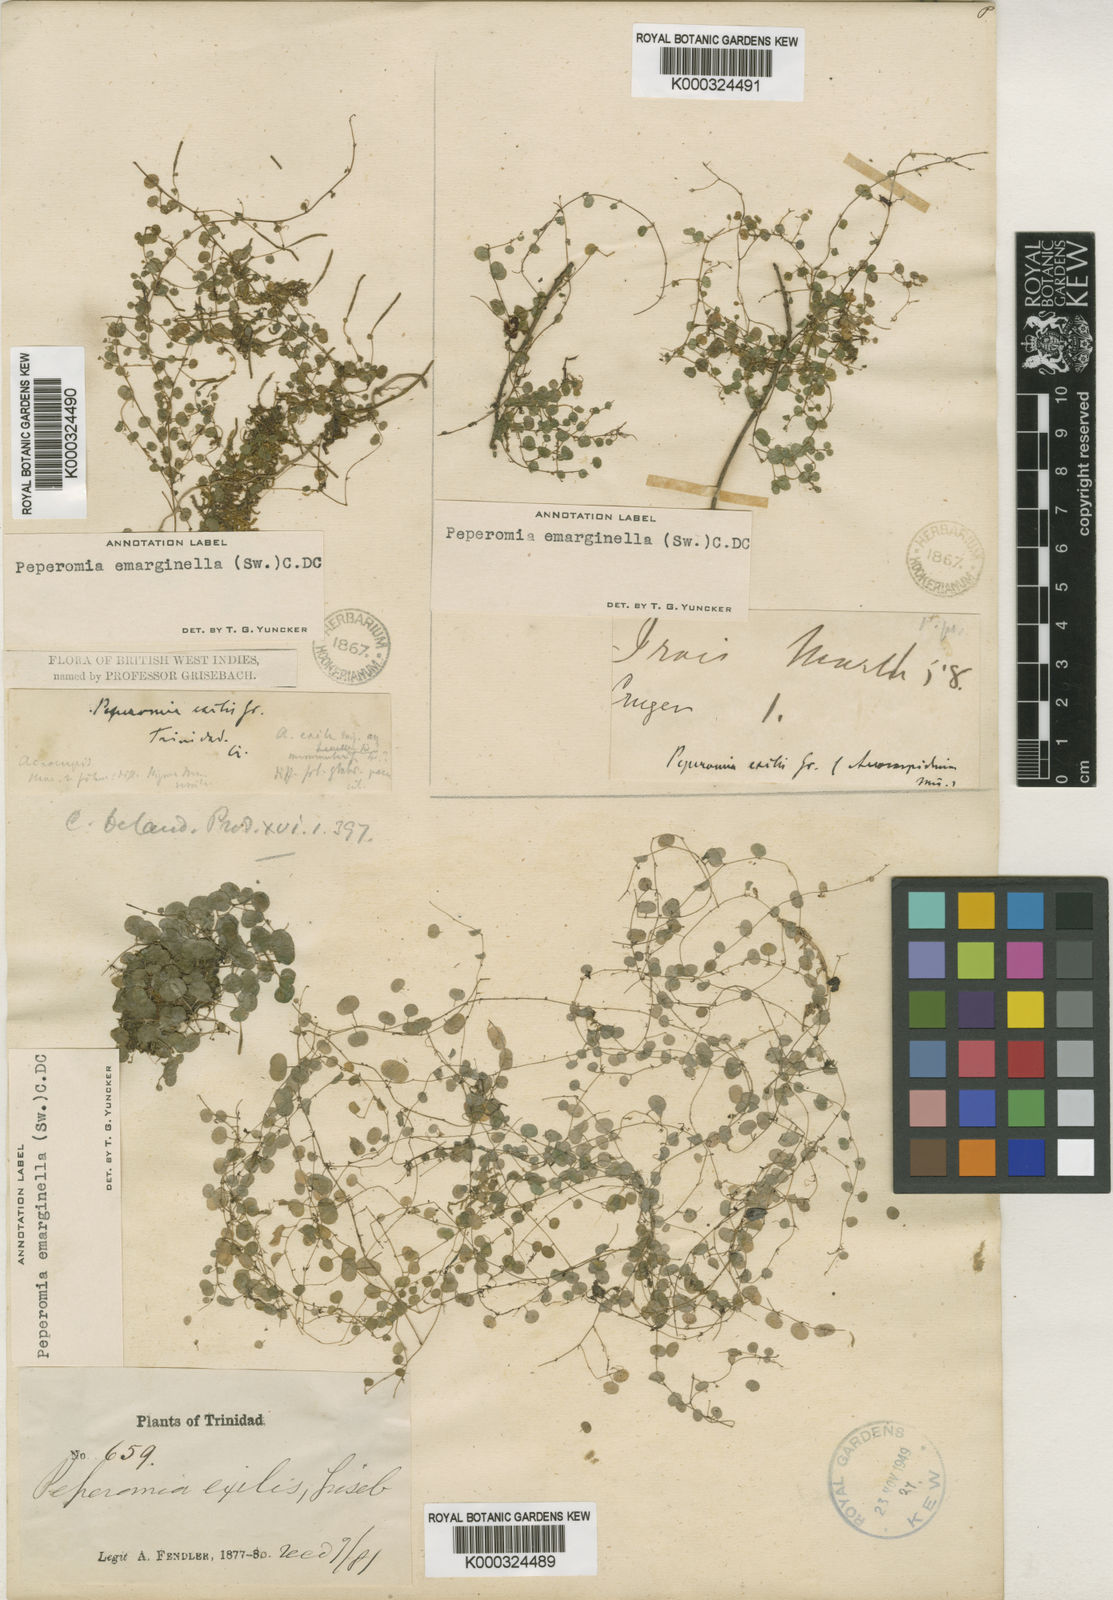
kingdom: Plantae
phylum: Tracheophyta
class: Magnoliopsida
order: Piperales
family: Piperaceae
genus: Peperomia
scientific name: Peperomia emarginella
